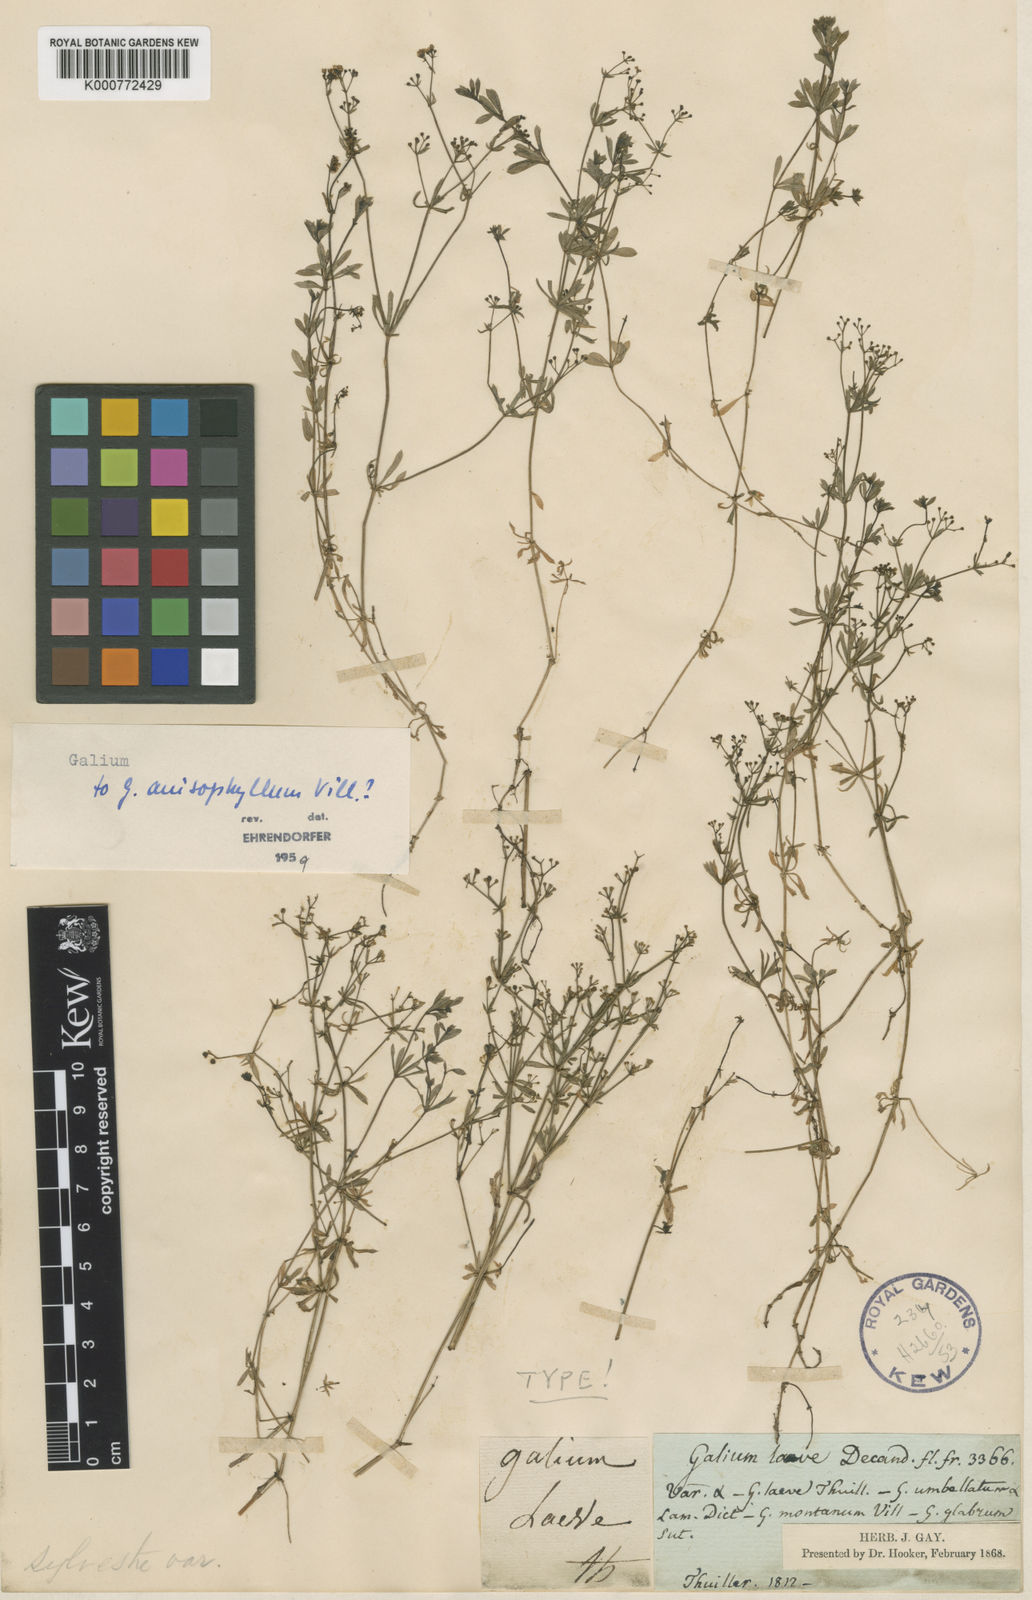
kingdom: Plantae
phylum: Tracheophyta
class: Magnoliopsida
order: Gentianales
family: Rubiaceae
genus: Galium
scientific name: Galium anisophyllon
